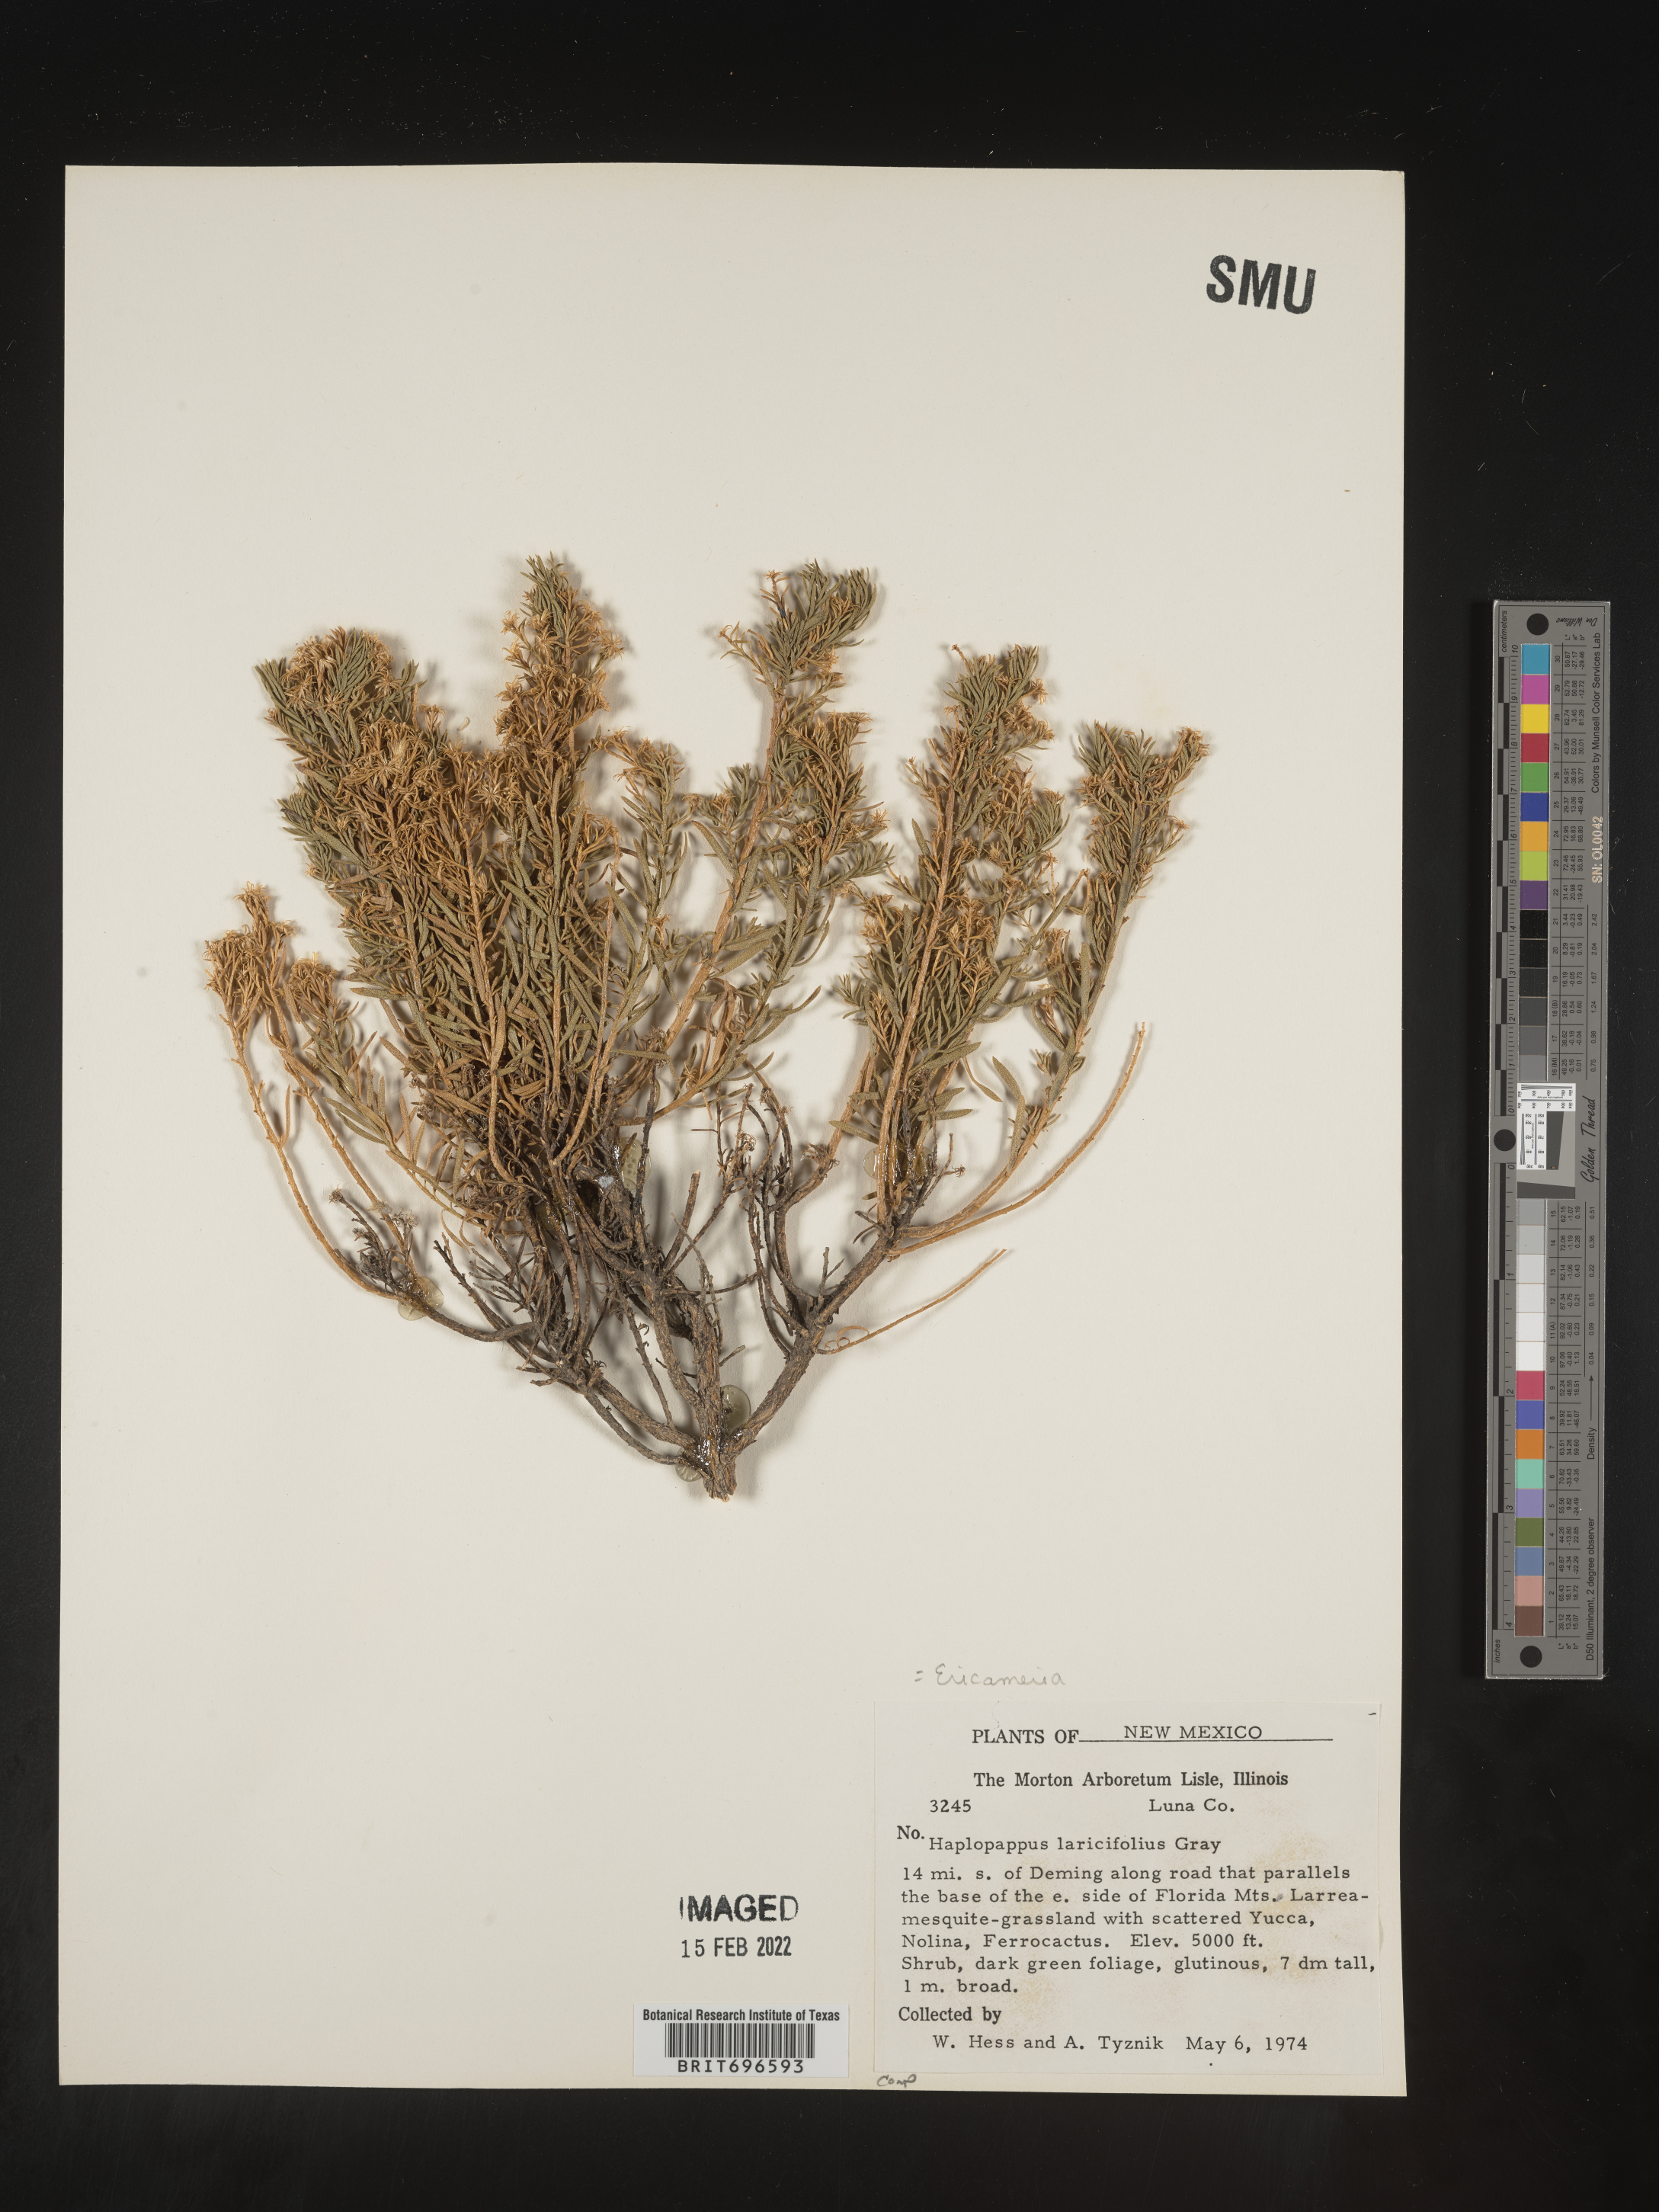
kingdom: Plantae
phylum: Tracheophyta
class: Magnoliopsida
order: Asterales
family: Asteraceae
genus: Ericameria
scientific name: Ericameria laricifolia
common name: Turpentine-bush
